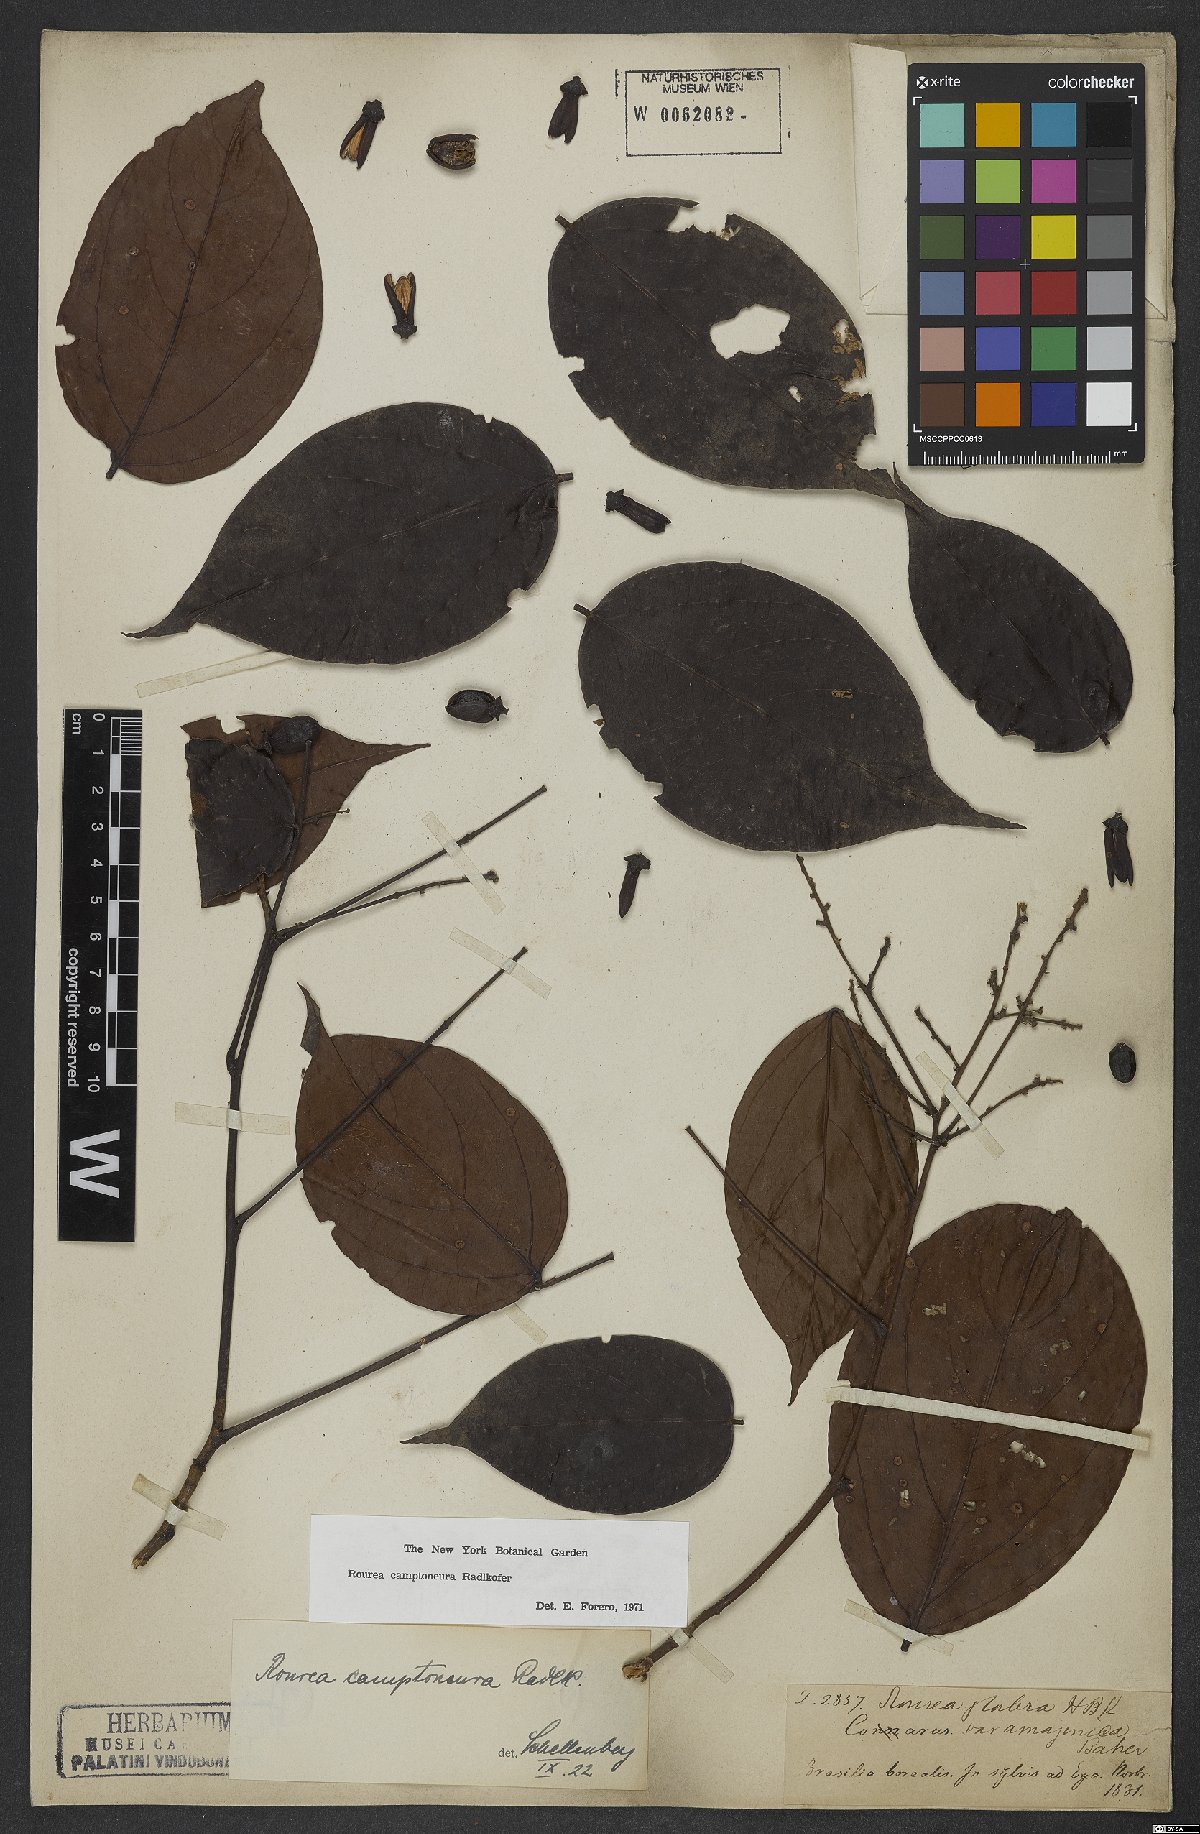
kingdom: Plantae
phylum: Tracheophyta
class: Magnoliopsida
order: Oxalidales
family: Connaraceae
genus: Rourea
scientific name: Rourea camptoneura
